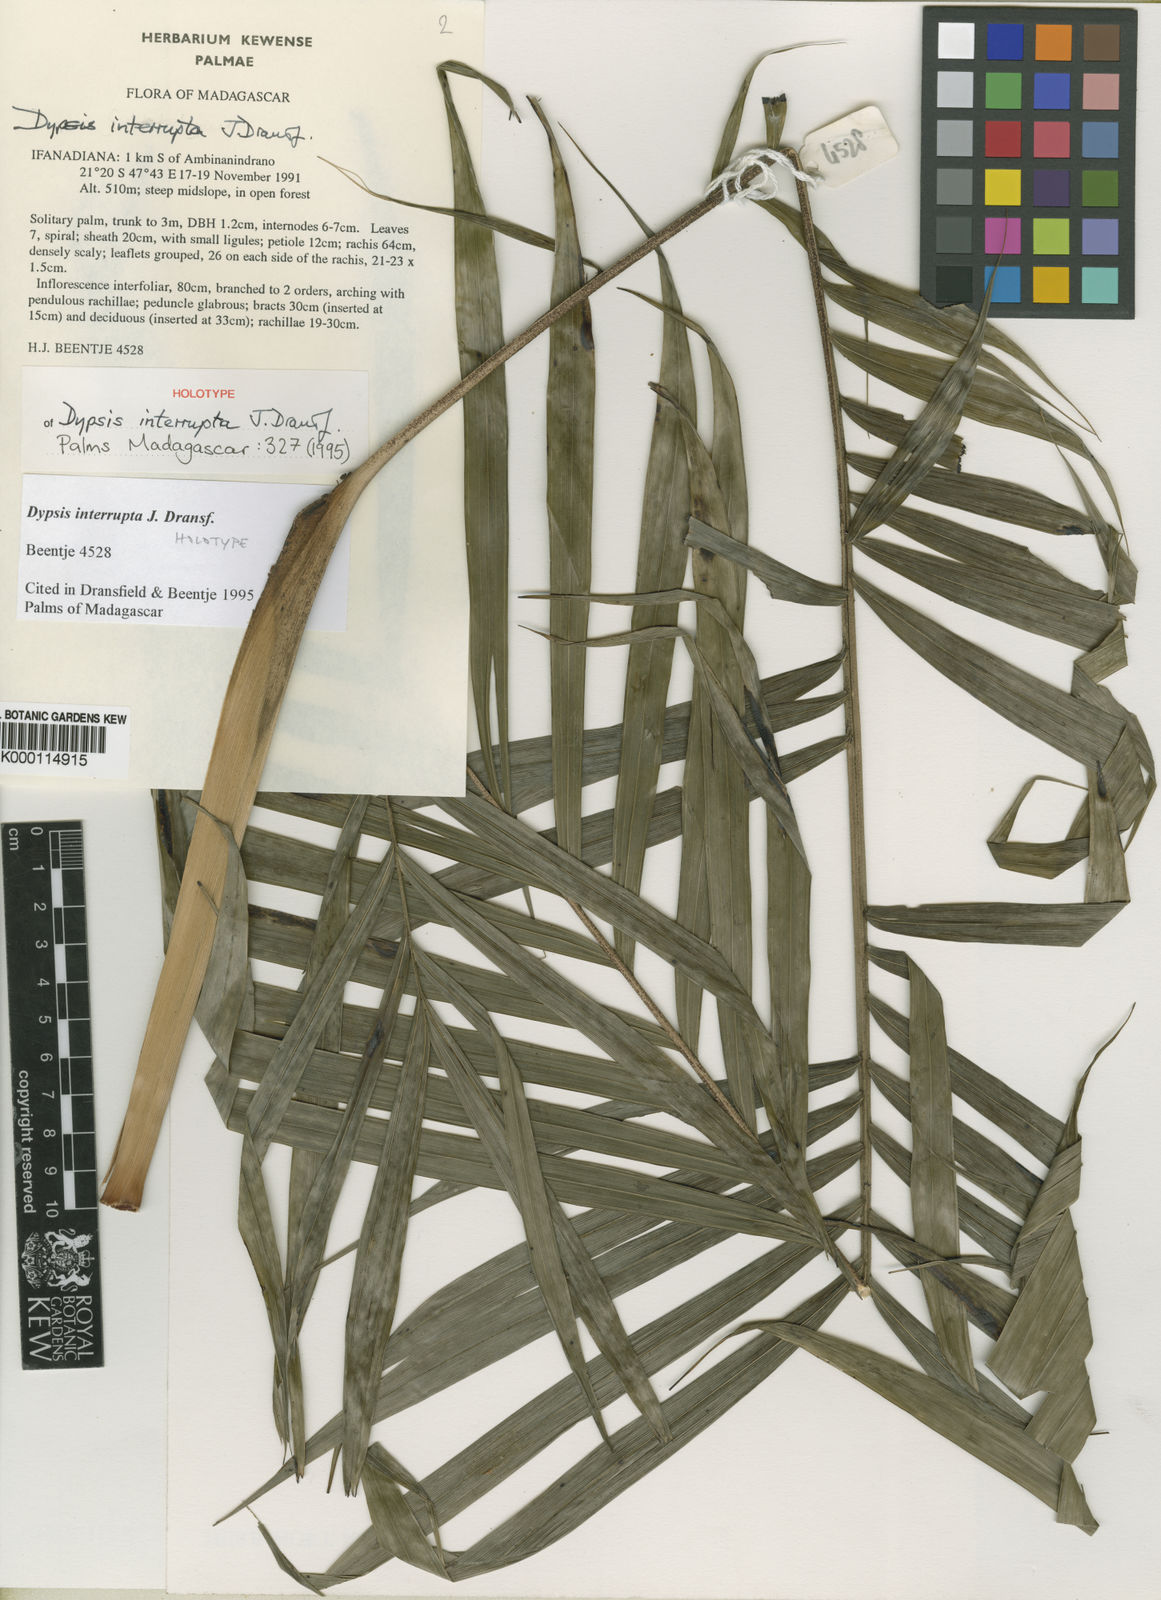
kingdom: Plantae
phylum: Tracheophyta
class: Liliopsida
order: Arecales
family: Arecaceae
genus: Dypsis
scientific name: Dypsis interrupta
